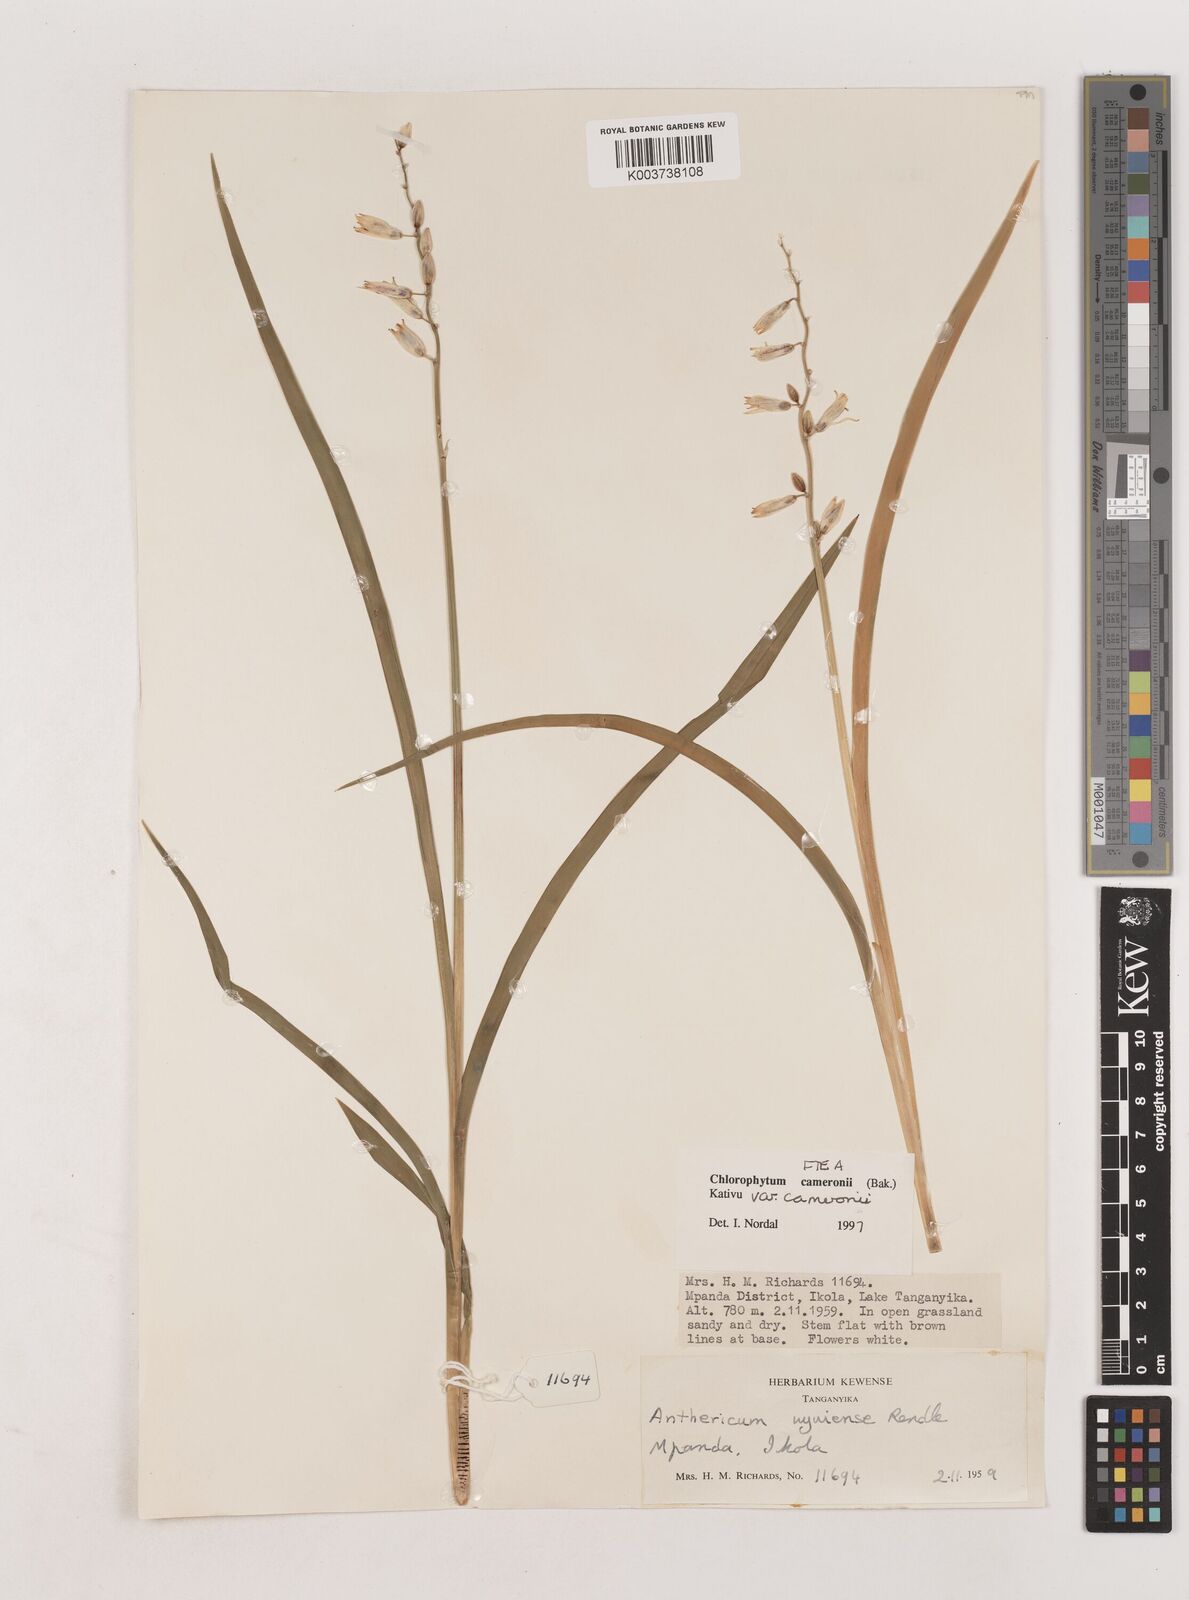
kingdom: Plantae
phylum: Tracheophyta
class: Liliopsida
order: Asparagales
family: Asparagaceae
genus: Chlorophytum
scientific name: Chlorophytum cameronii
